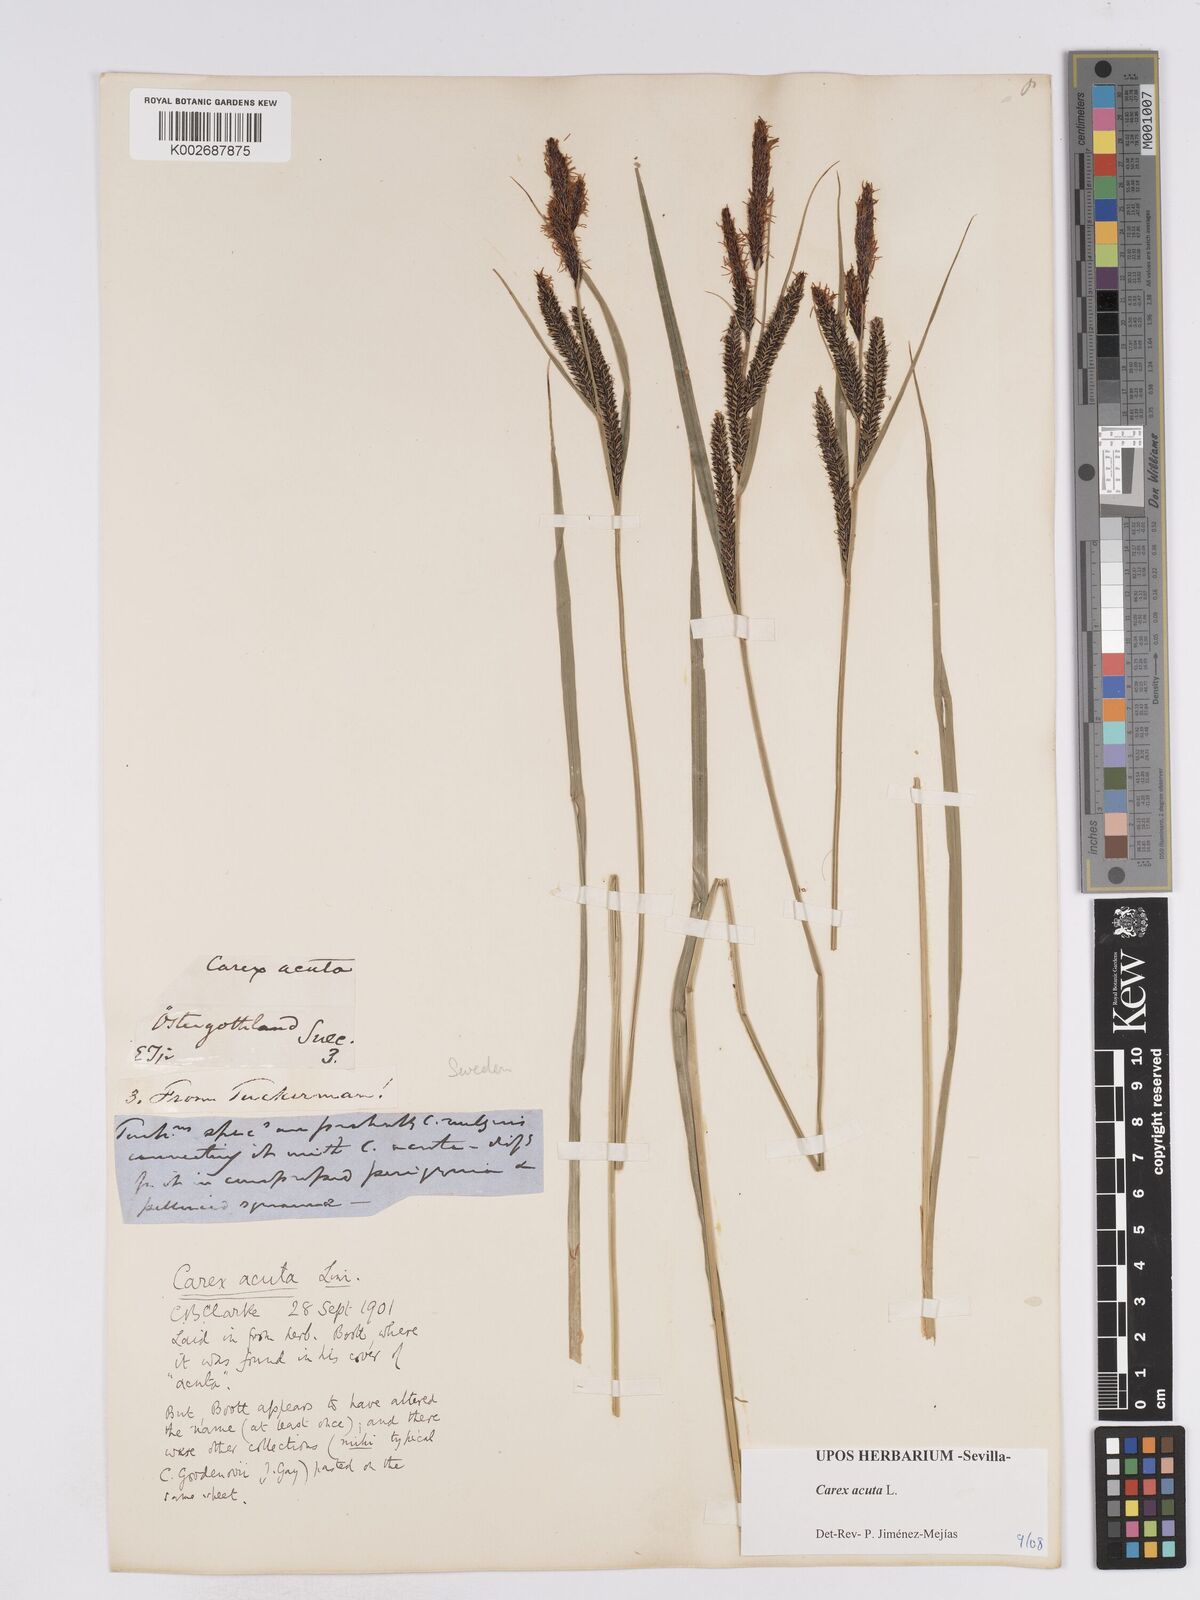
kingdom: Plantae
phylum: Tracheophyta
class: Liliopsida
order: Poales
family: Cyperaceae
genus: Carex
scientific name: Carex acuta
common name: Slender tufted-sedge
